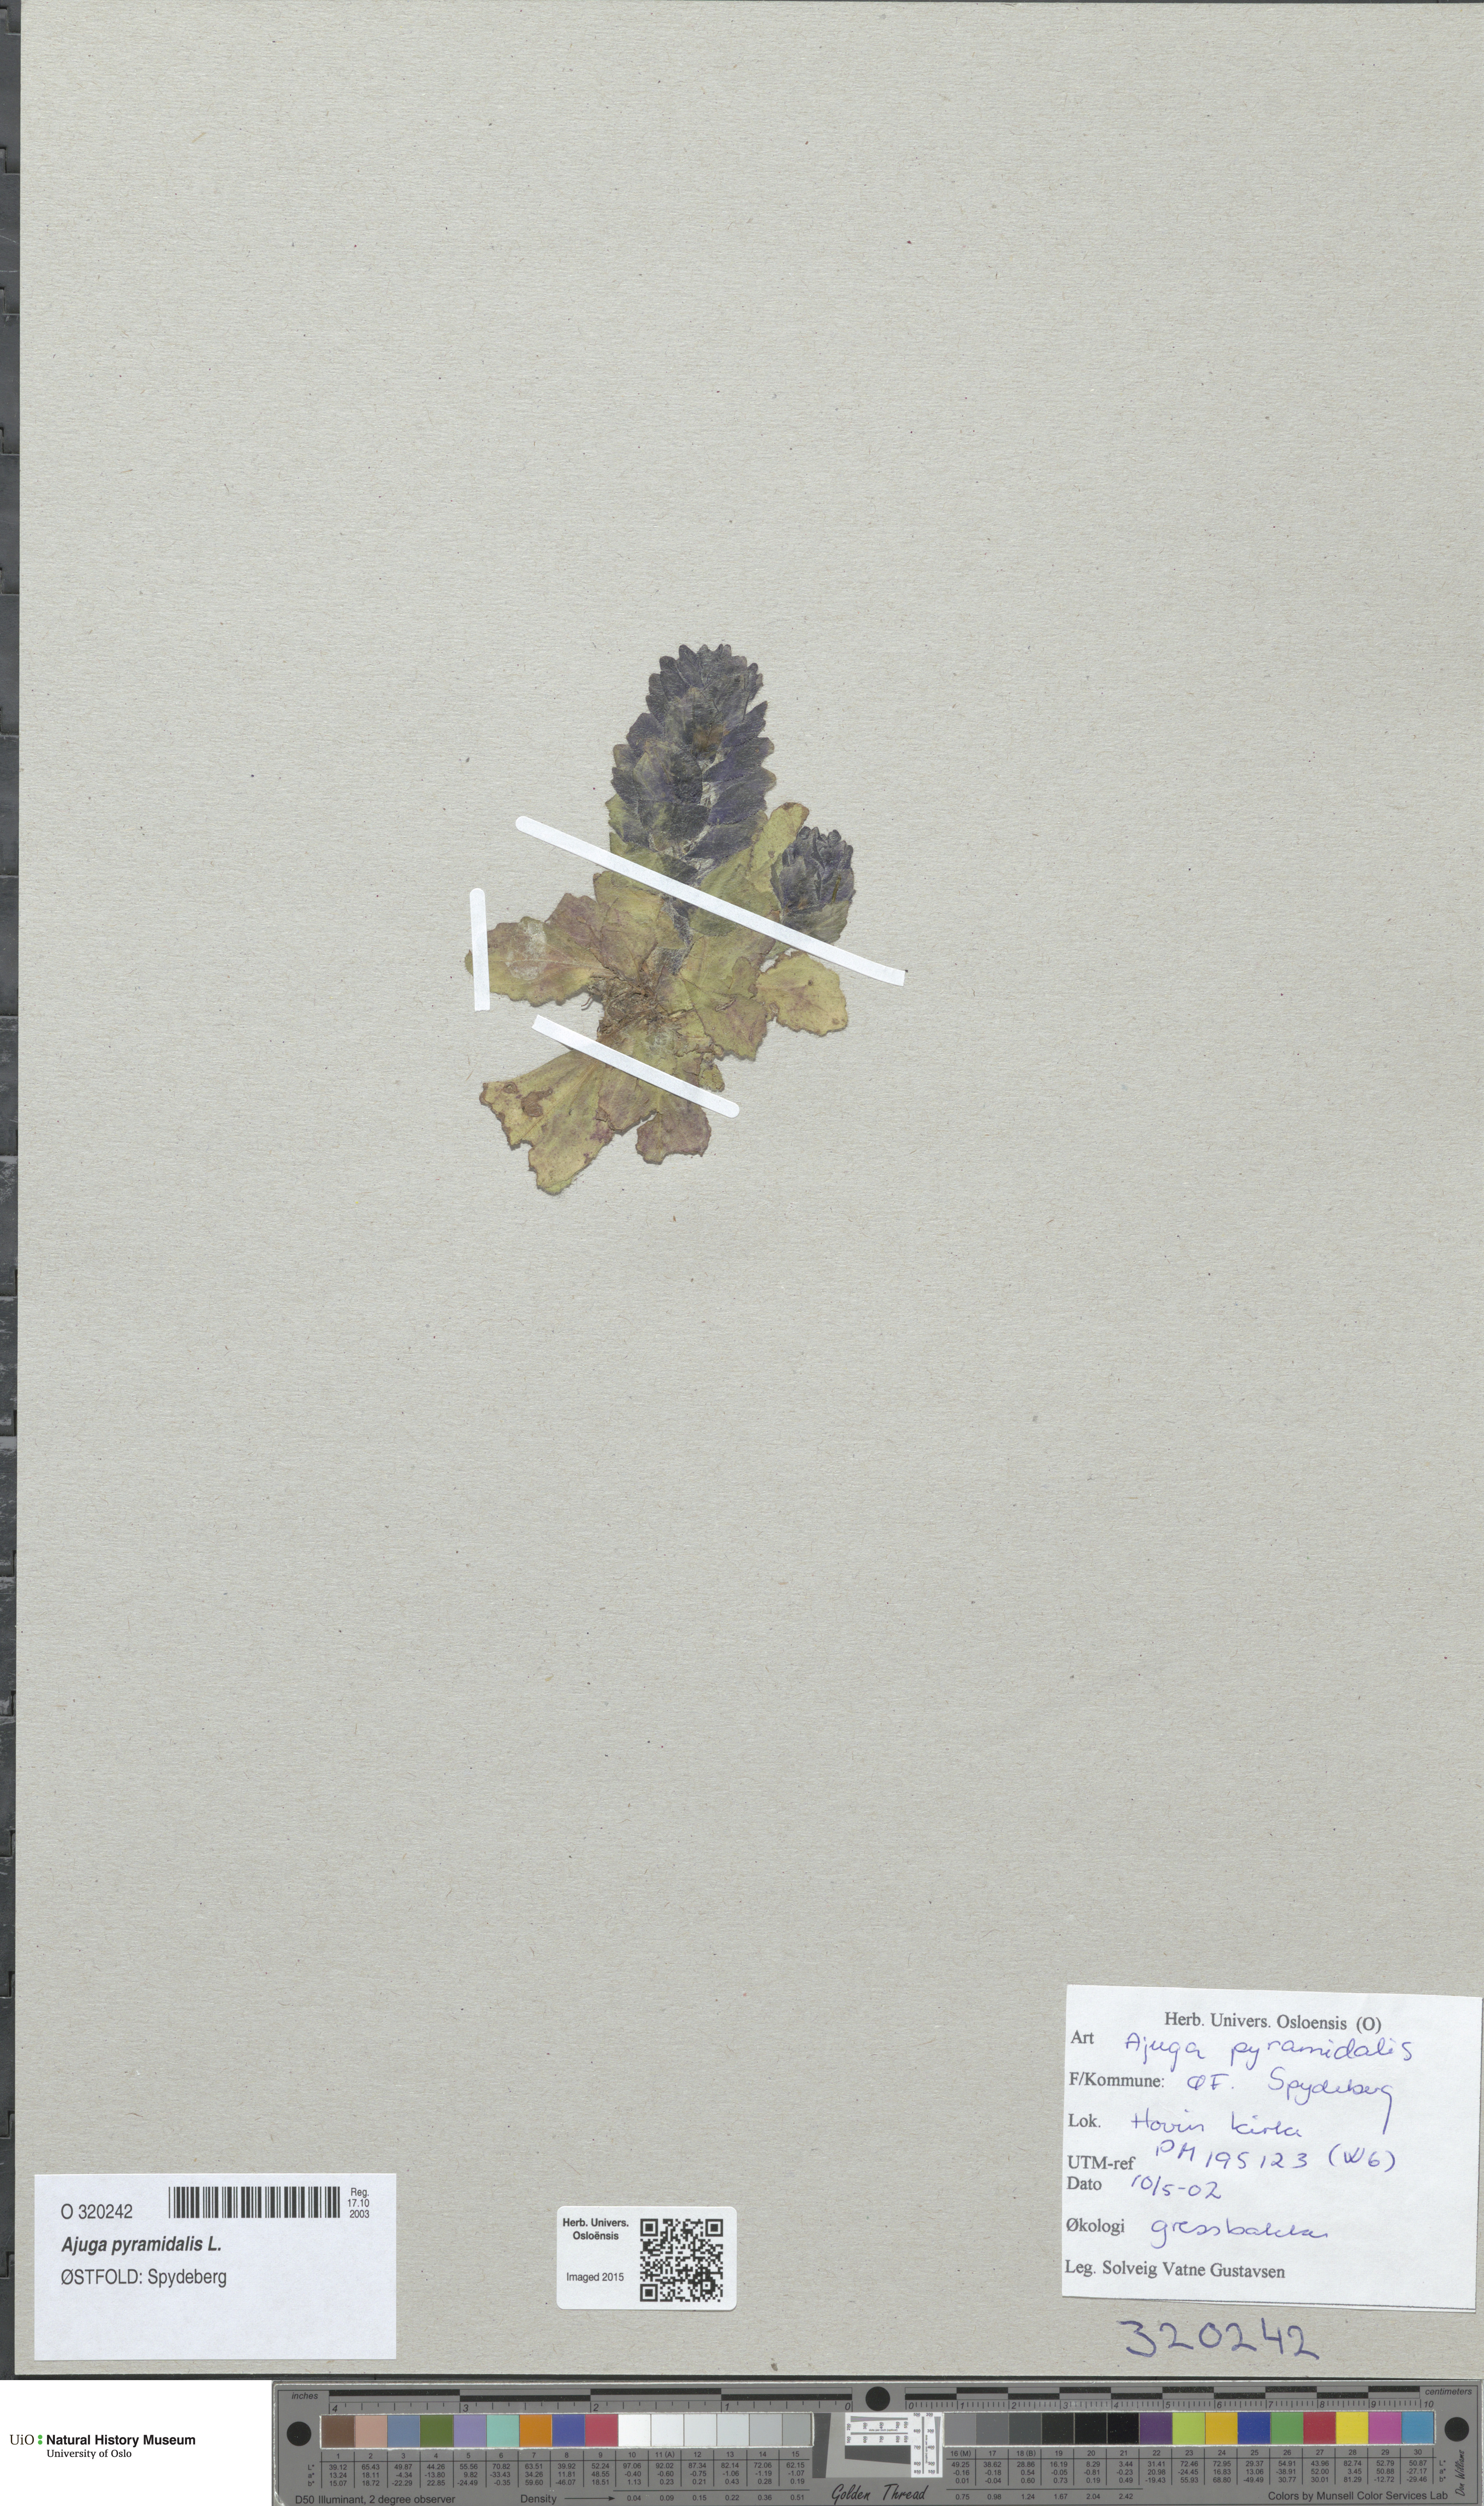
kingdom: Plantae
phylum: Tracheophyta
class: Magnoliopsida
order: Lamiales
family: Lamiaceae
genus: Ajuga
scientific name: Ajuga pyramidalis
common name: Pyramid bugle
